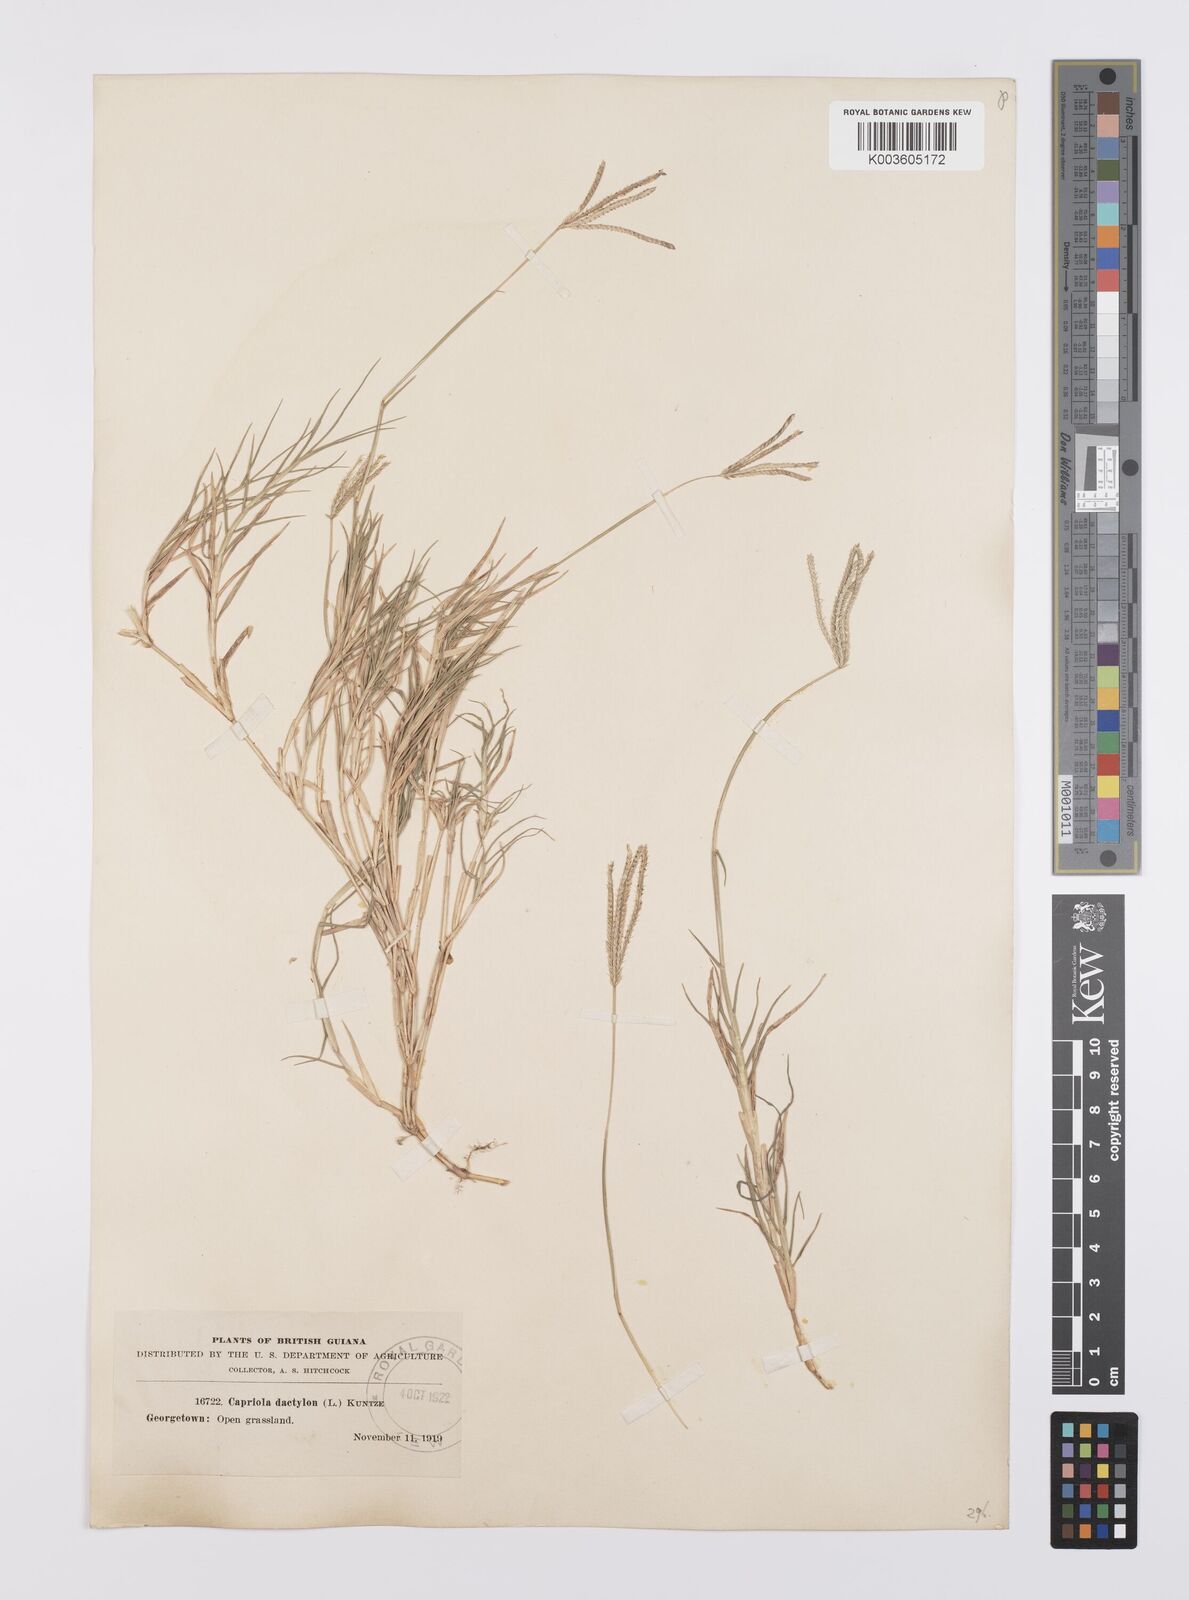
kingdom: Plantae
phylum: Tracheophyta
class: Liliopsida
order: Poales
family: Poaceae
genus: Cynodon
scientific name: Cynodon dactylon
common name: Bermuda grass
